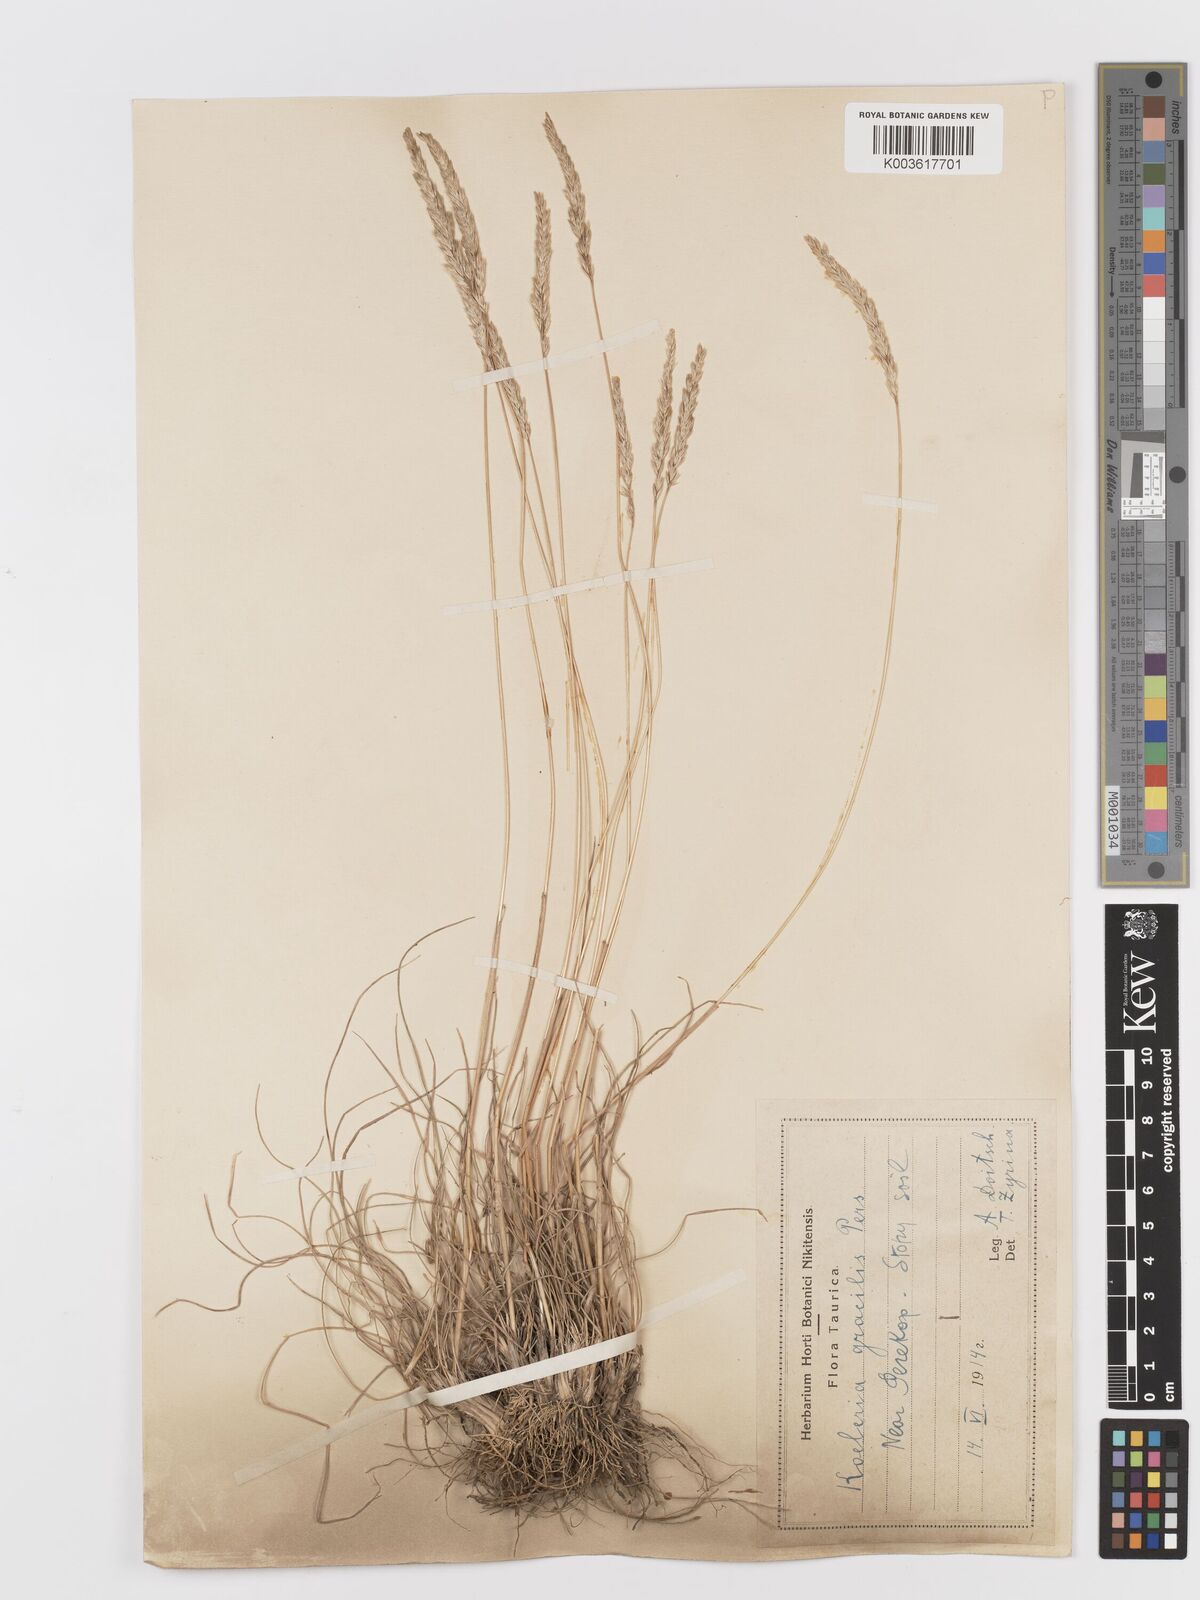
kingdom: Plantae
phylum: Tracheophyta
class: Liliopsida
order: Poales
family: Poaceae
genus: Koeleria
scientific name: Koeleria pyramidata
